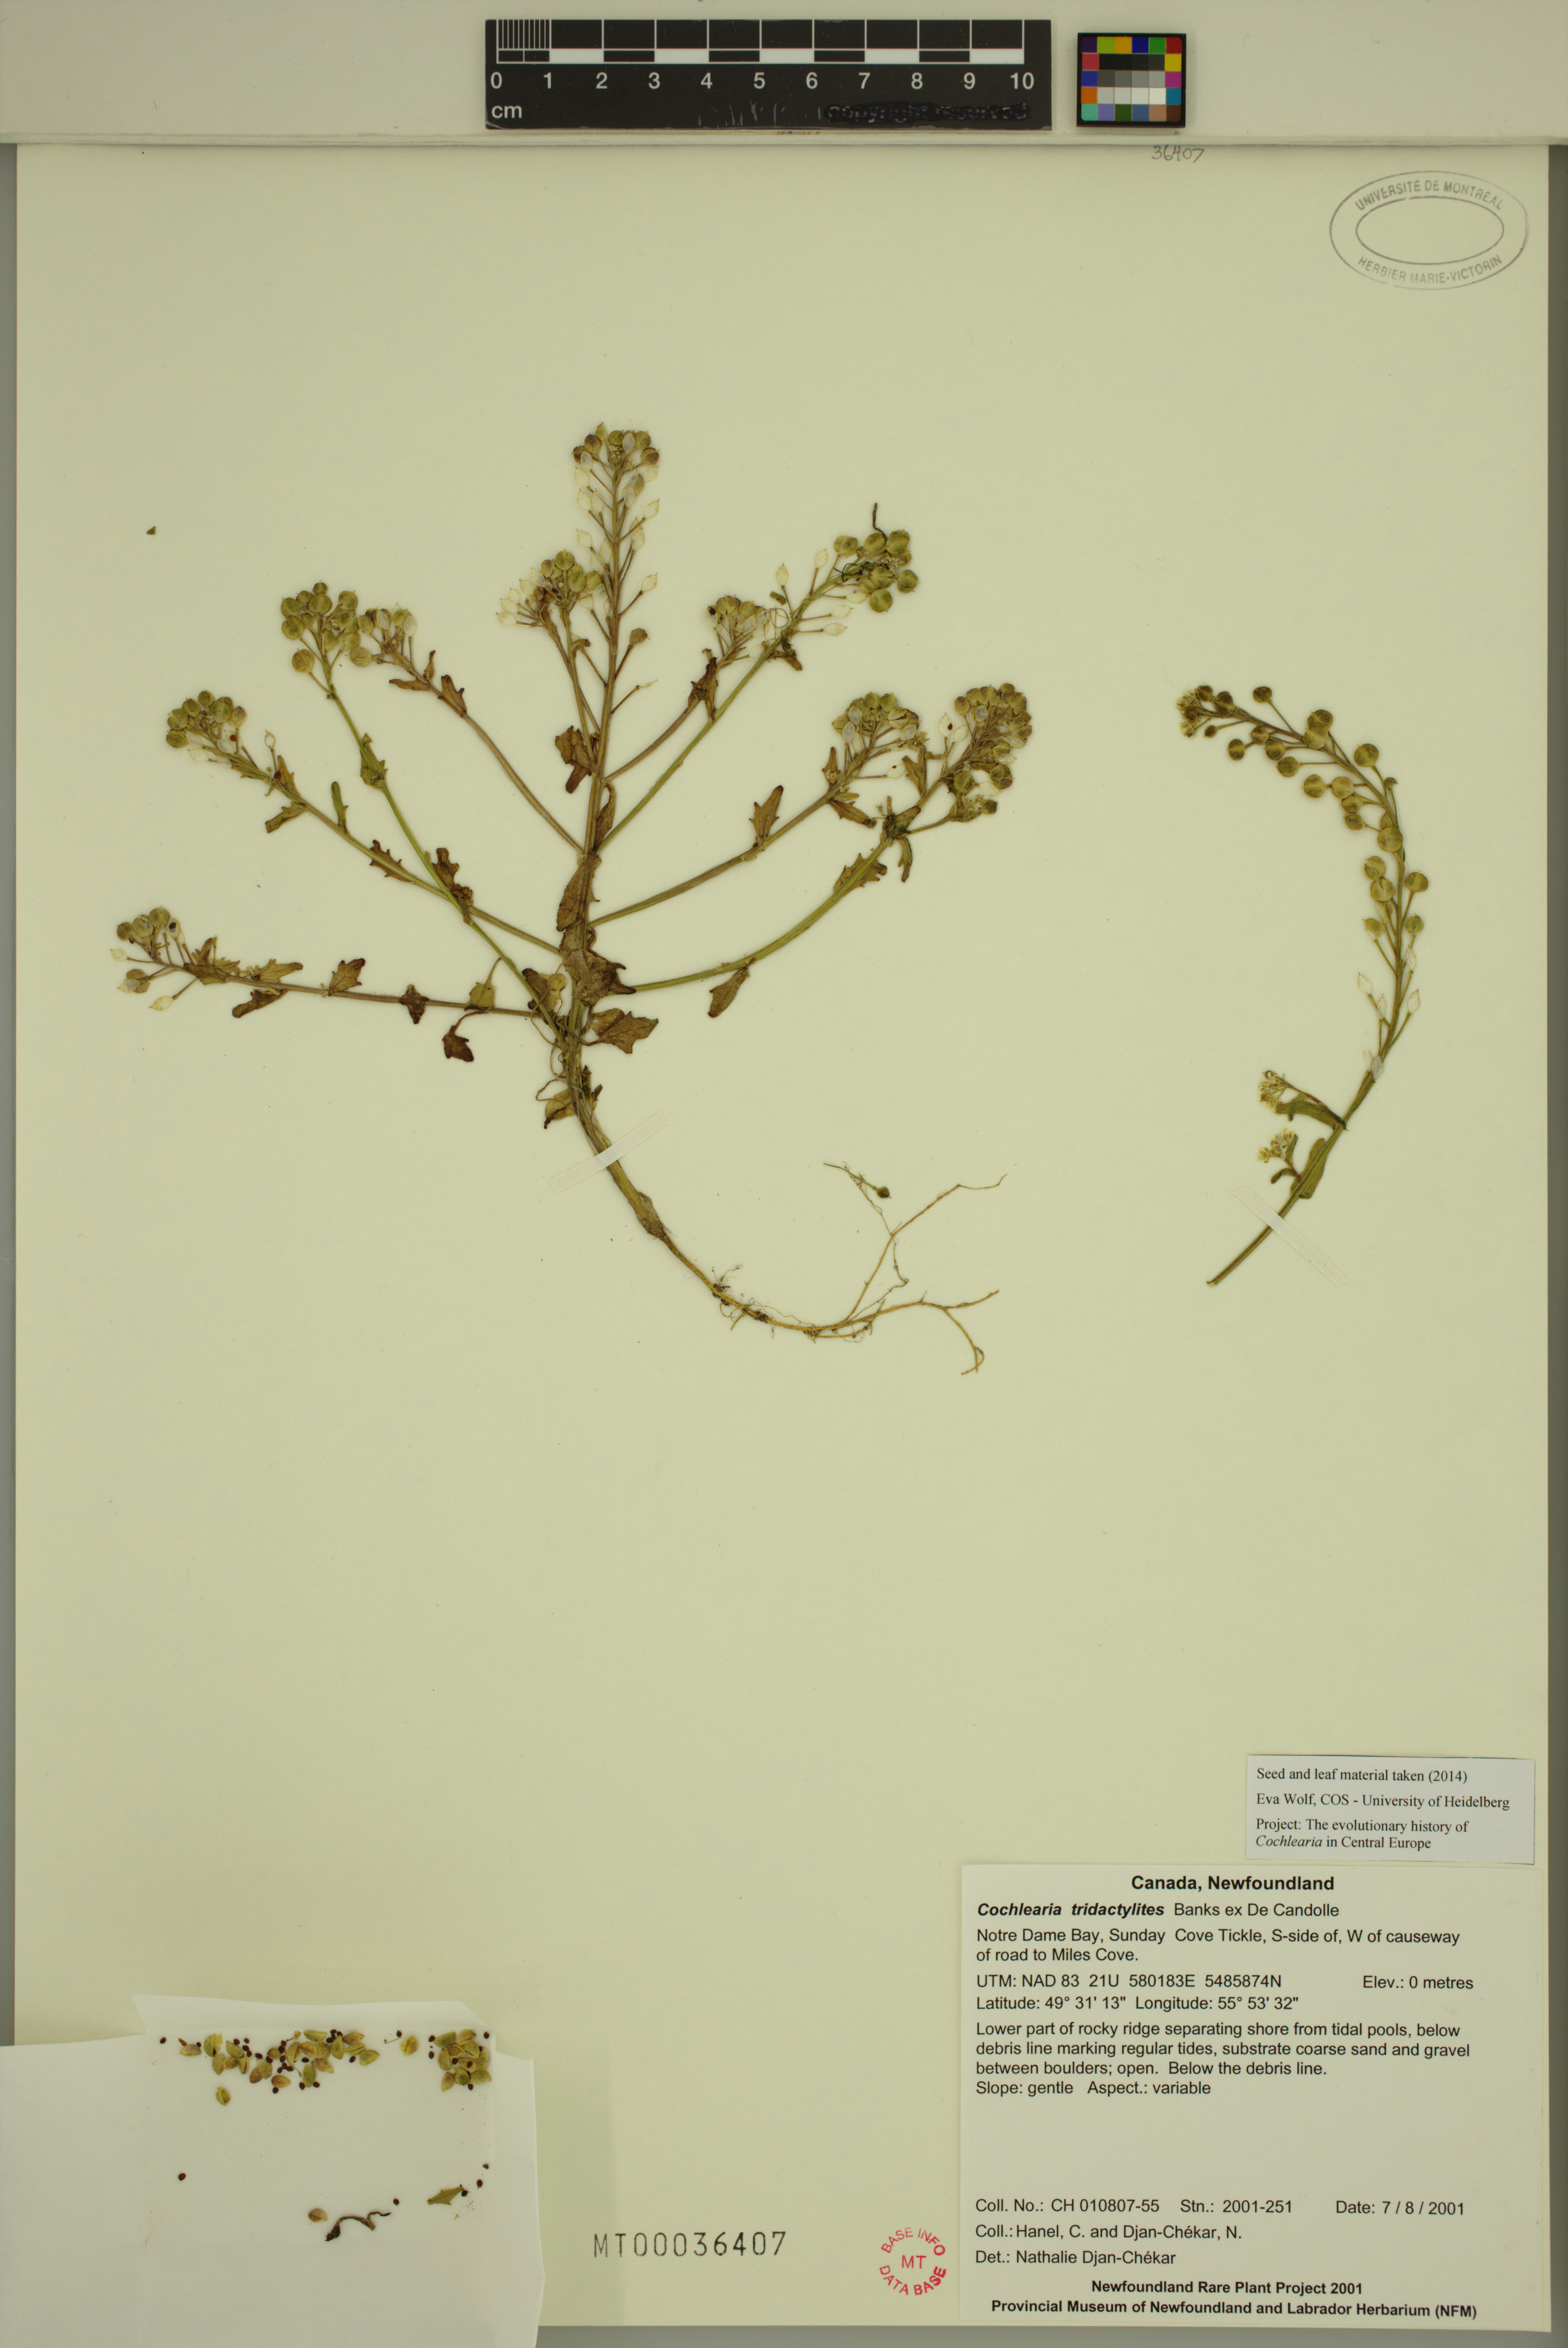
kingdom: Plantae
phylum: Tracheophyta
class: Magnoliopsida
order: Brassicales
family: Brassicaceae
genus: Cochlearia
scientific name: Cochlearia tridactylites
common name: Limestone scurvygrass
